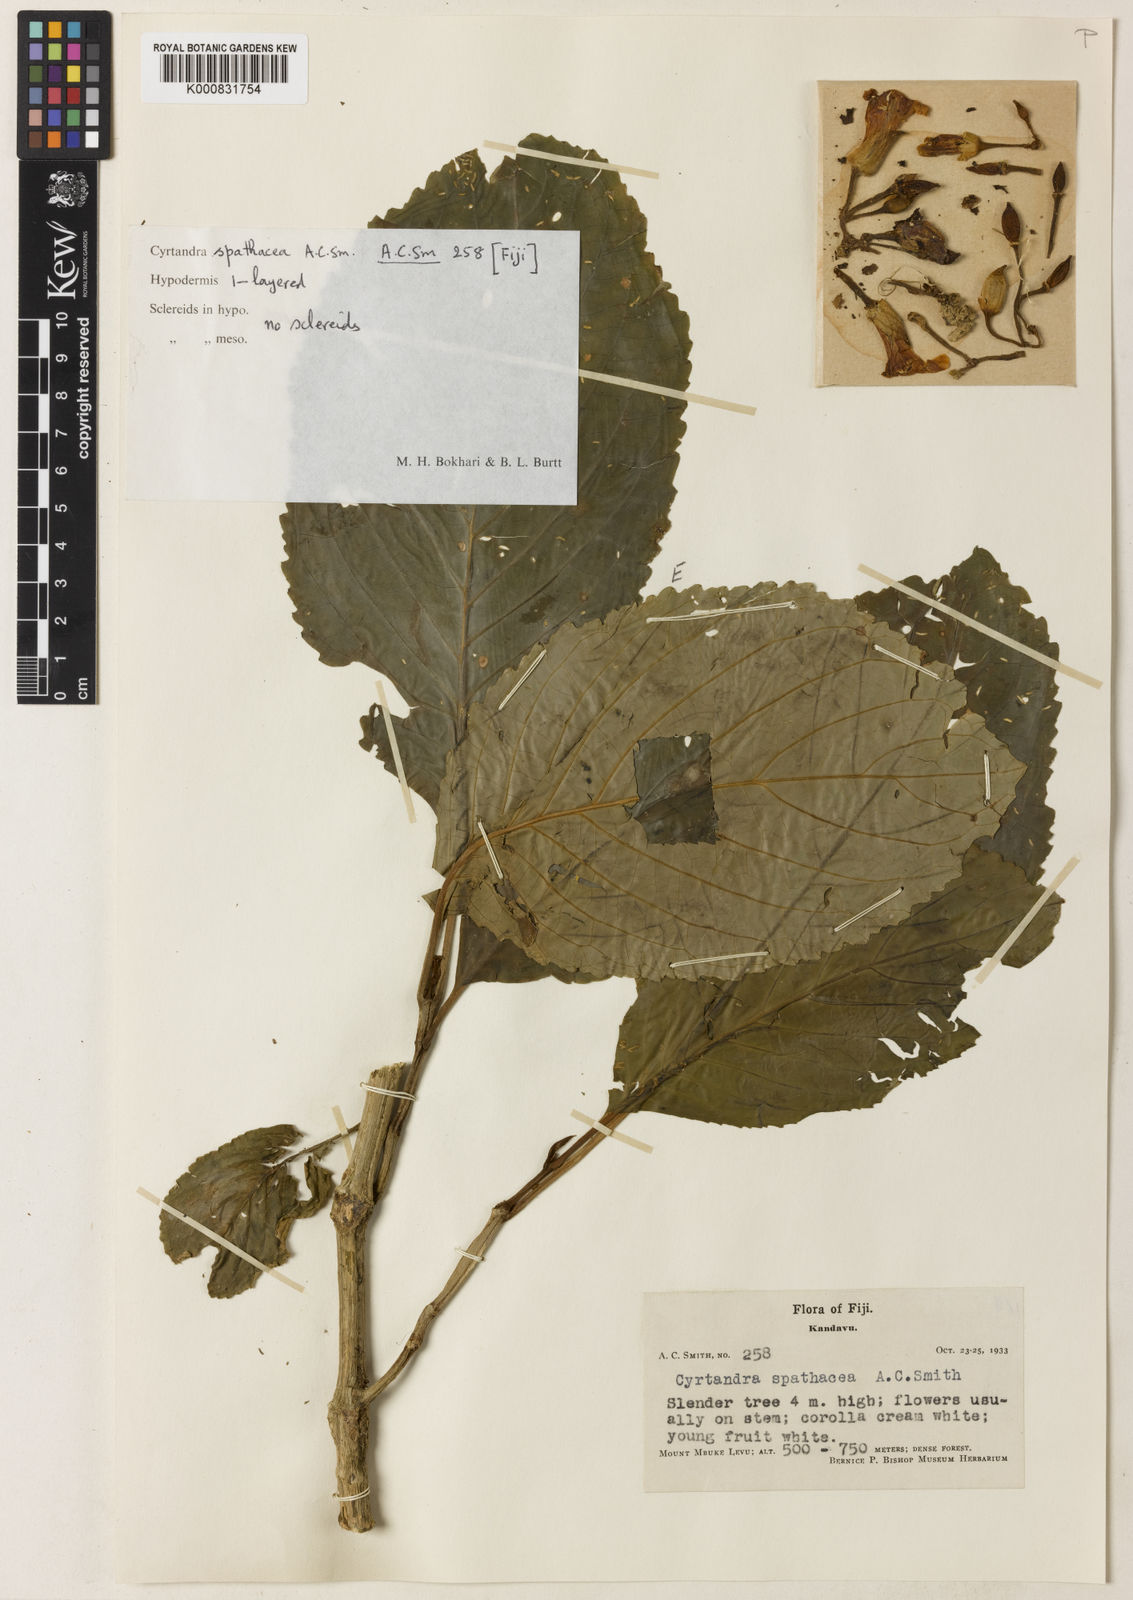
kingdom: Plantae
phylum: Tracheophyta
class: Magnoliopsida
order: Lamiales
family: Gesneriaceae
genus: Cyrtandra
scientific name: Cyrtandra spathacea
